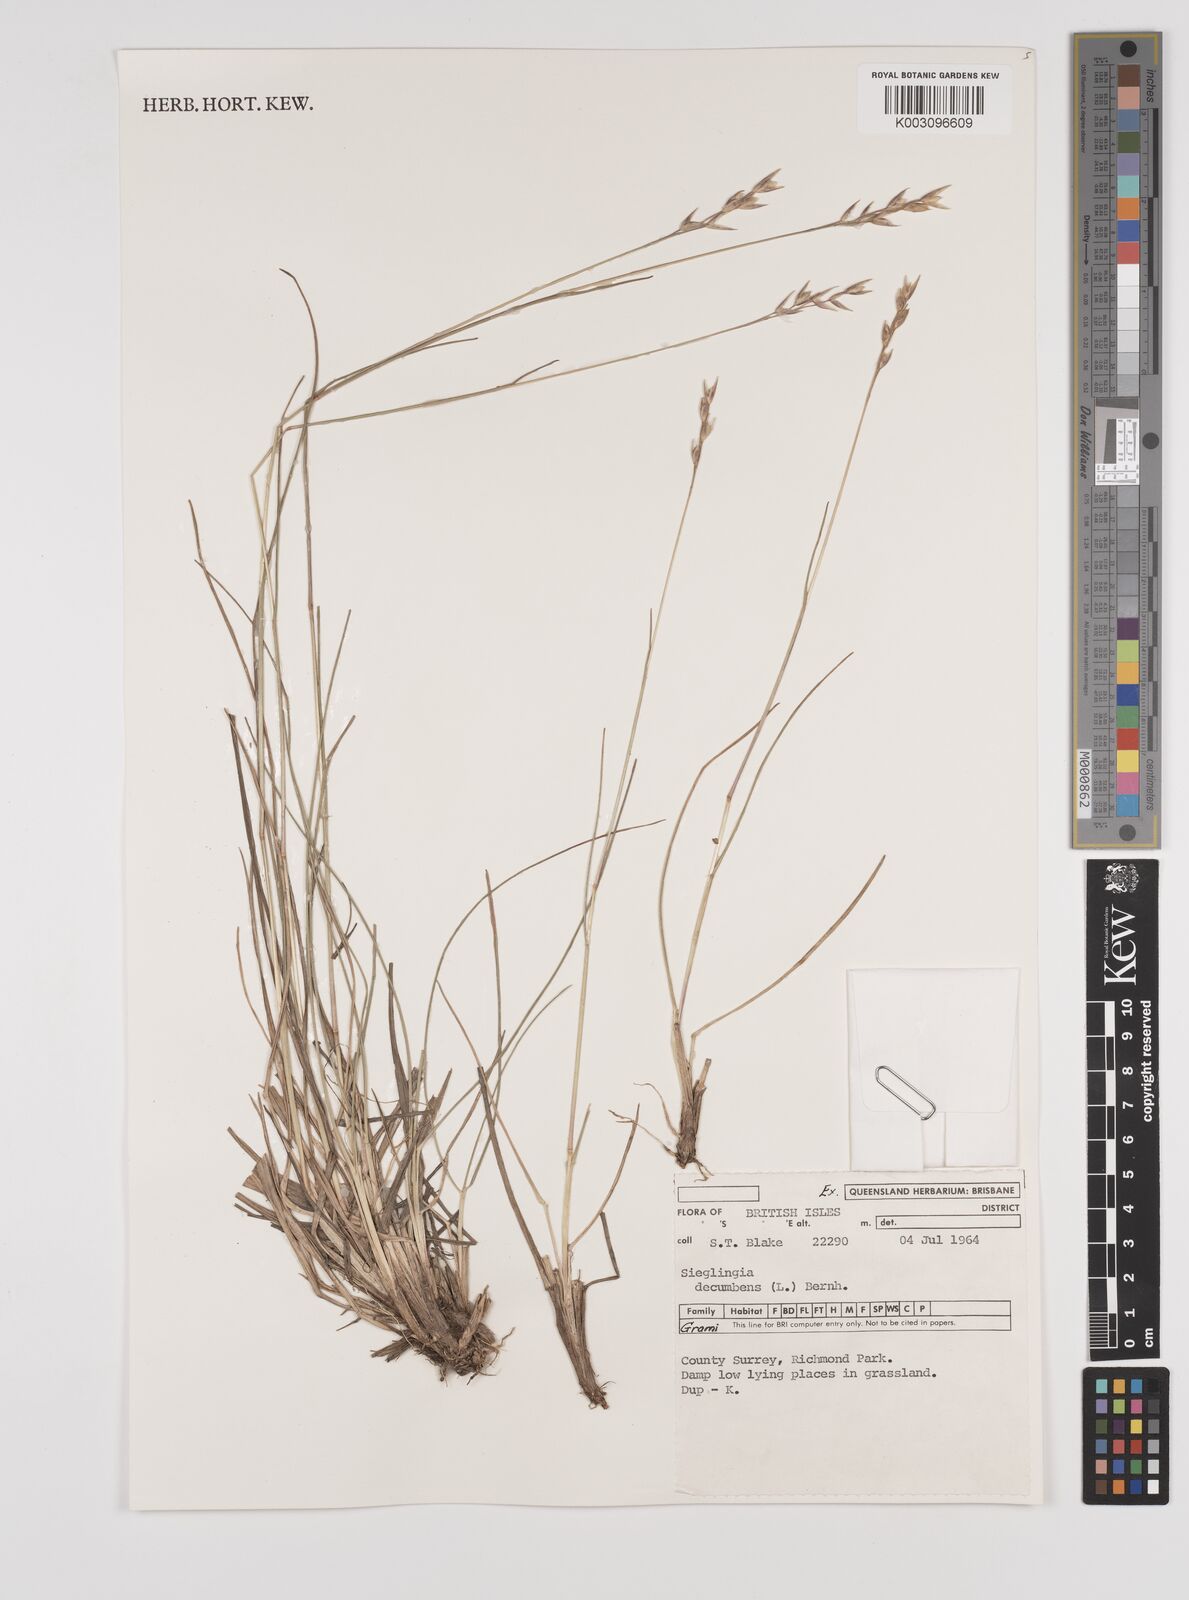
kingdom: Plantae
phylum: Tracheophyta
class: Liliopsida
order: Poales
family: Poaceae
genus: Danthonia
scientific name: Danthonia decumbens
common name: Common heathgrass
